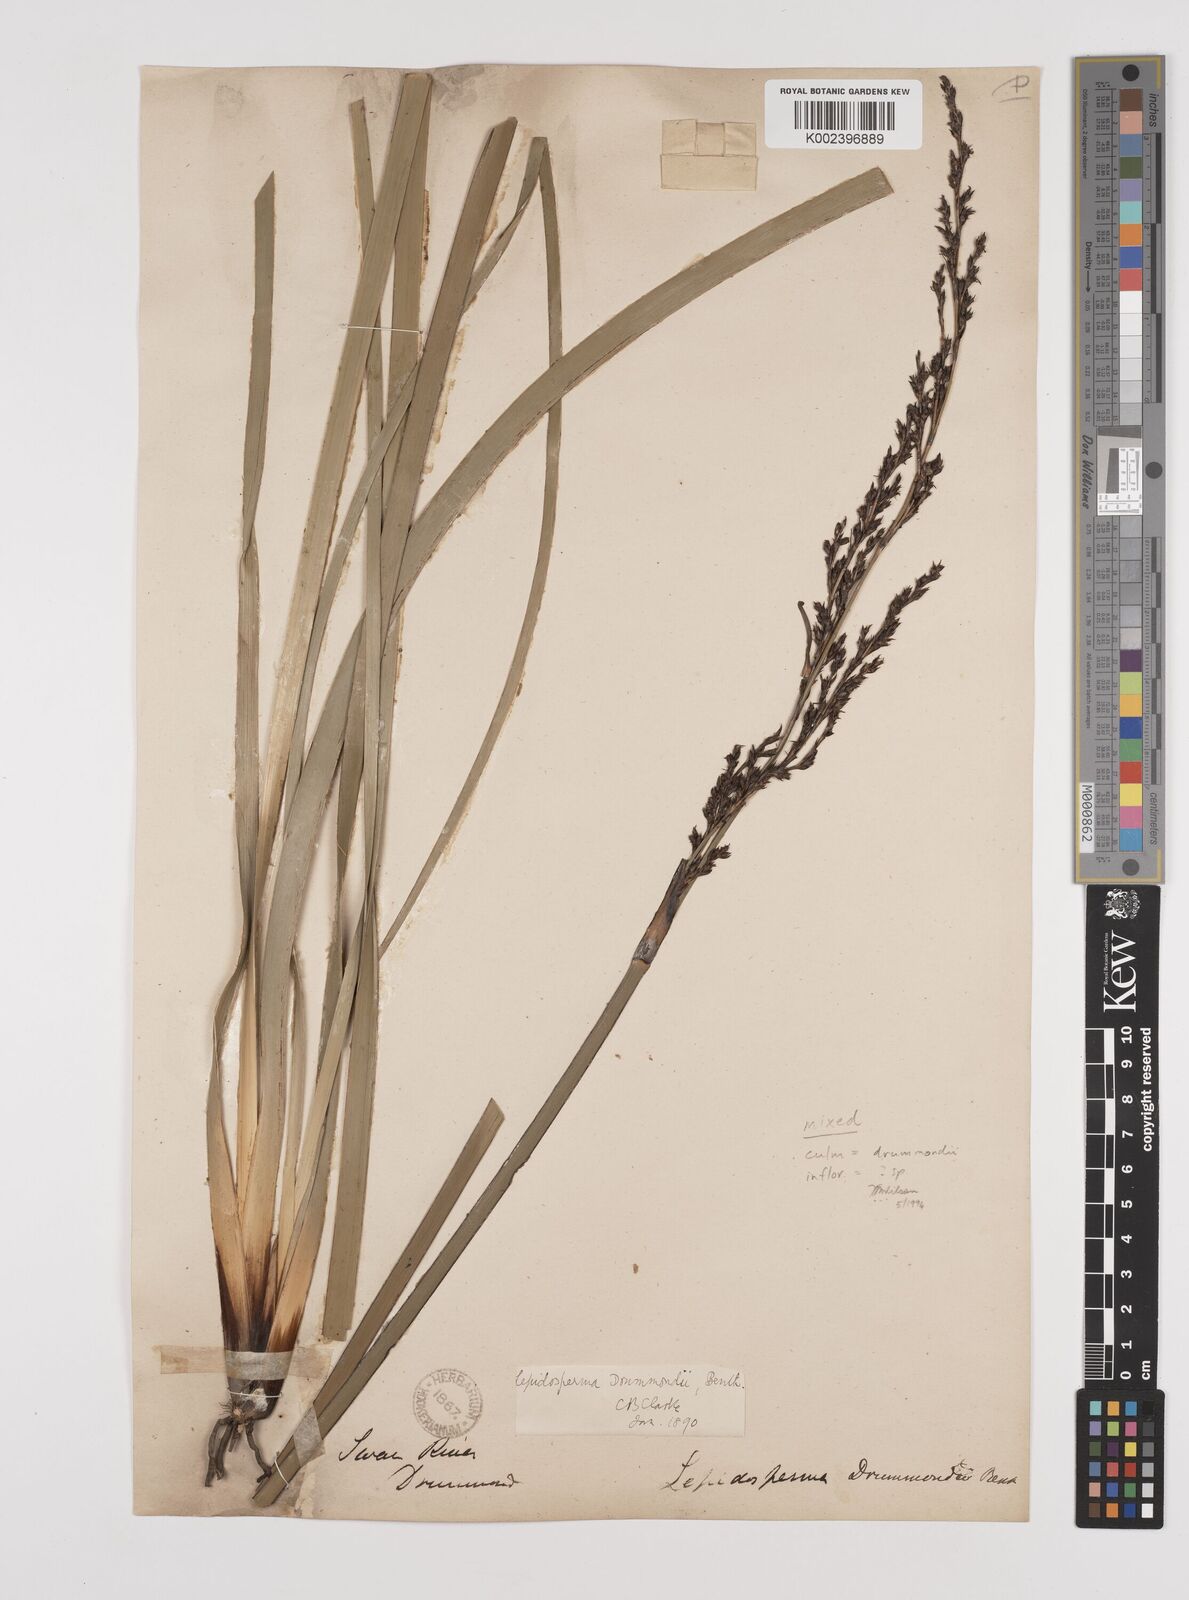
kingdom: Plantae
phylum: Tracheophyta
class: Liliopsida
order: Poales
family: Cyperaceae
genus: Lepidosperma
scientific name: Lepidosperma drummondii
